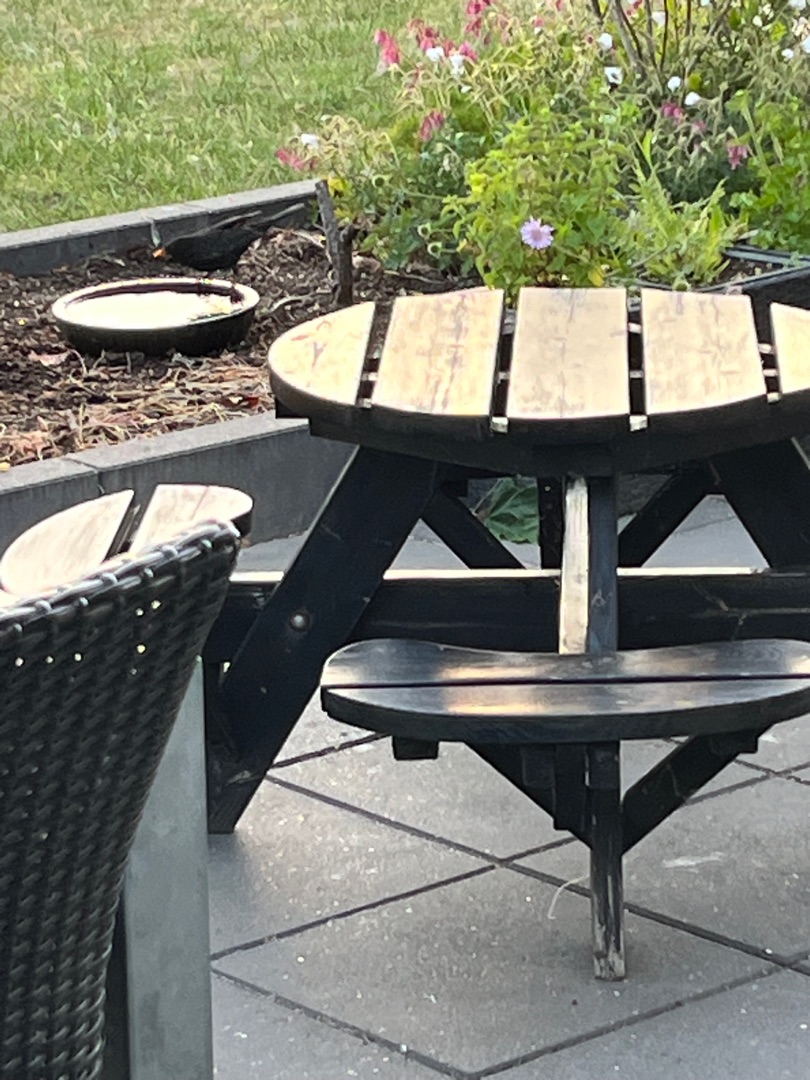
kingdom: Animalia
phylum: Chordata
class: Aves
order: Passeriformes
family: Turdidae
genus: Turdus
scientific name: Turdus merula
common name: Solsort
